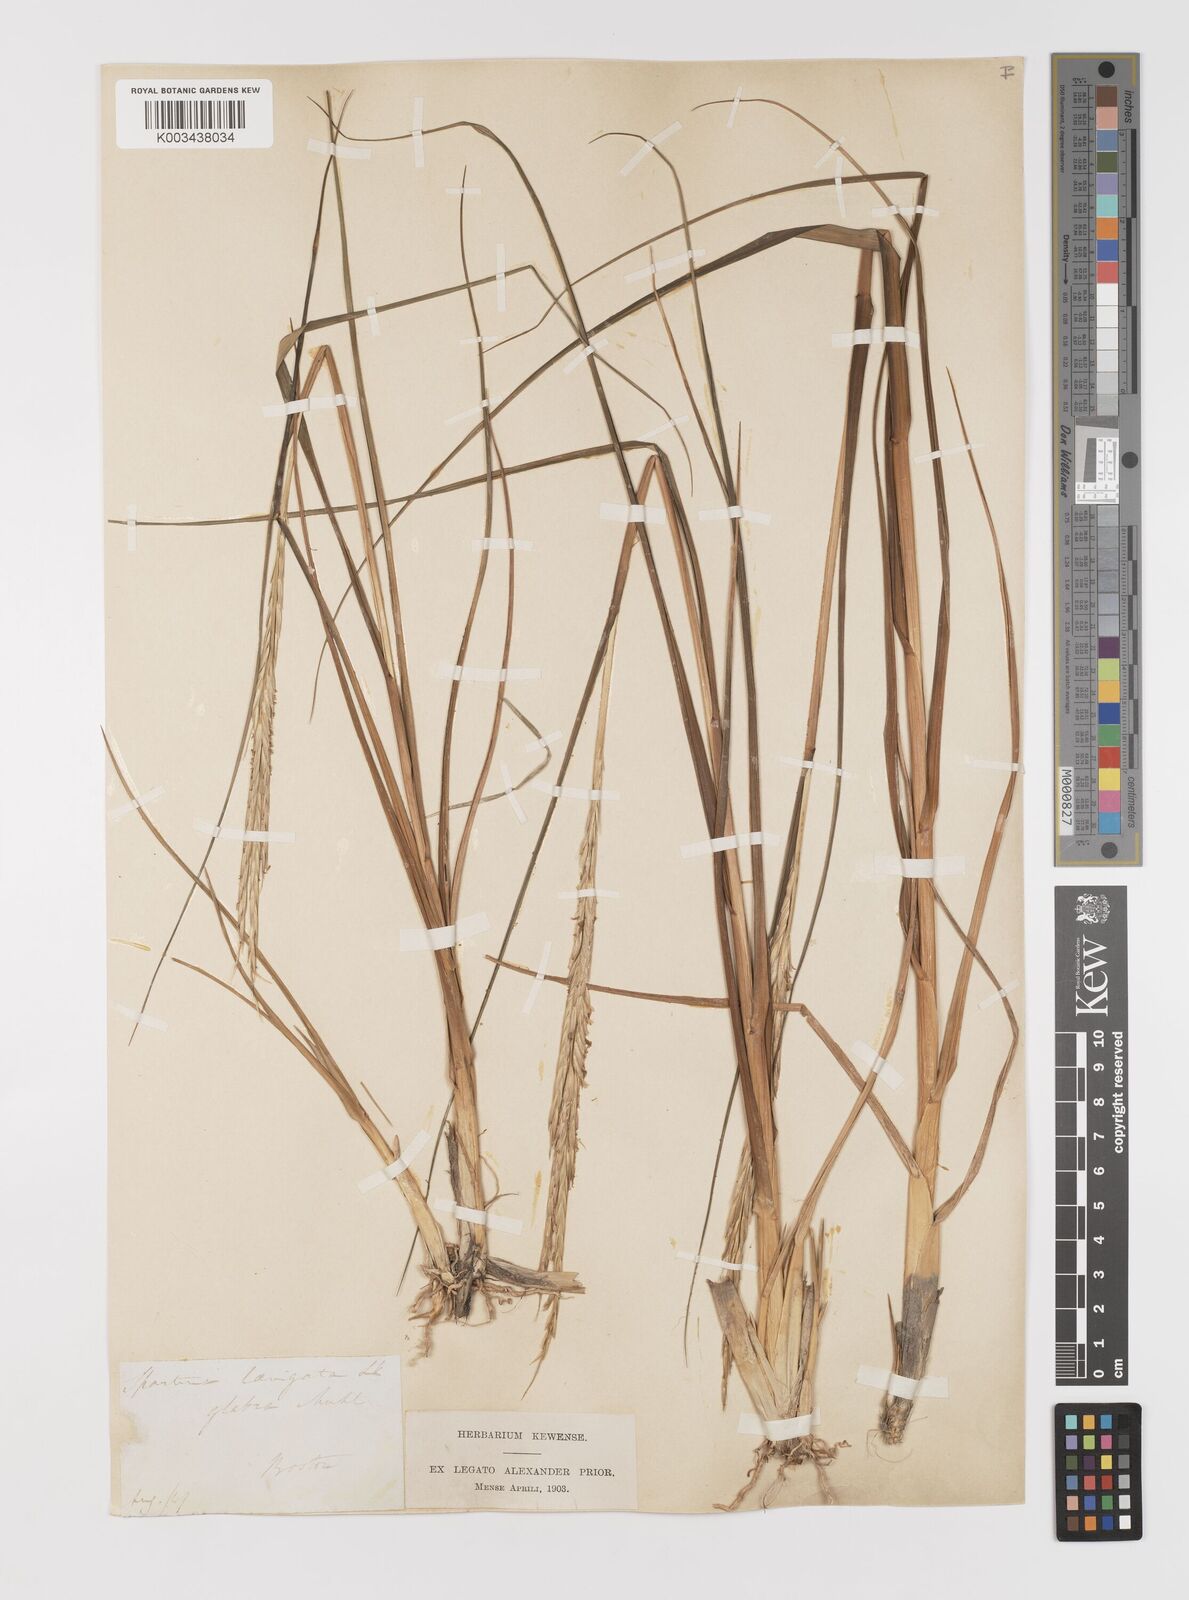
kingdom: Plantae
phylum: Tracheophyta
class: Liliopsida
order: Poales
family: Poaceae
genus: Sporobolus
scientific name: Sporobolus alterniflorus
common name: Atlantic cordgrass
